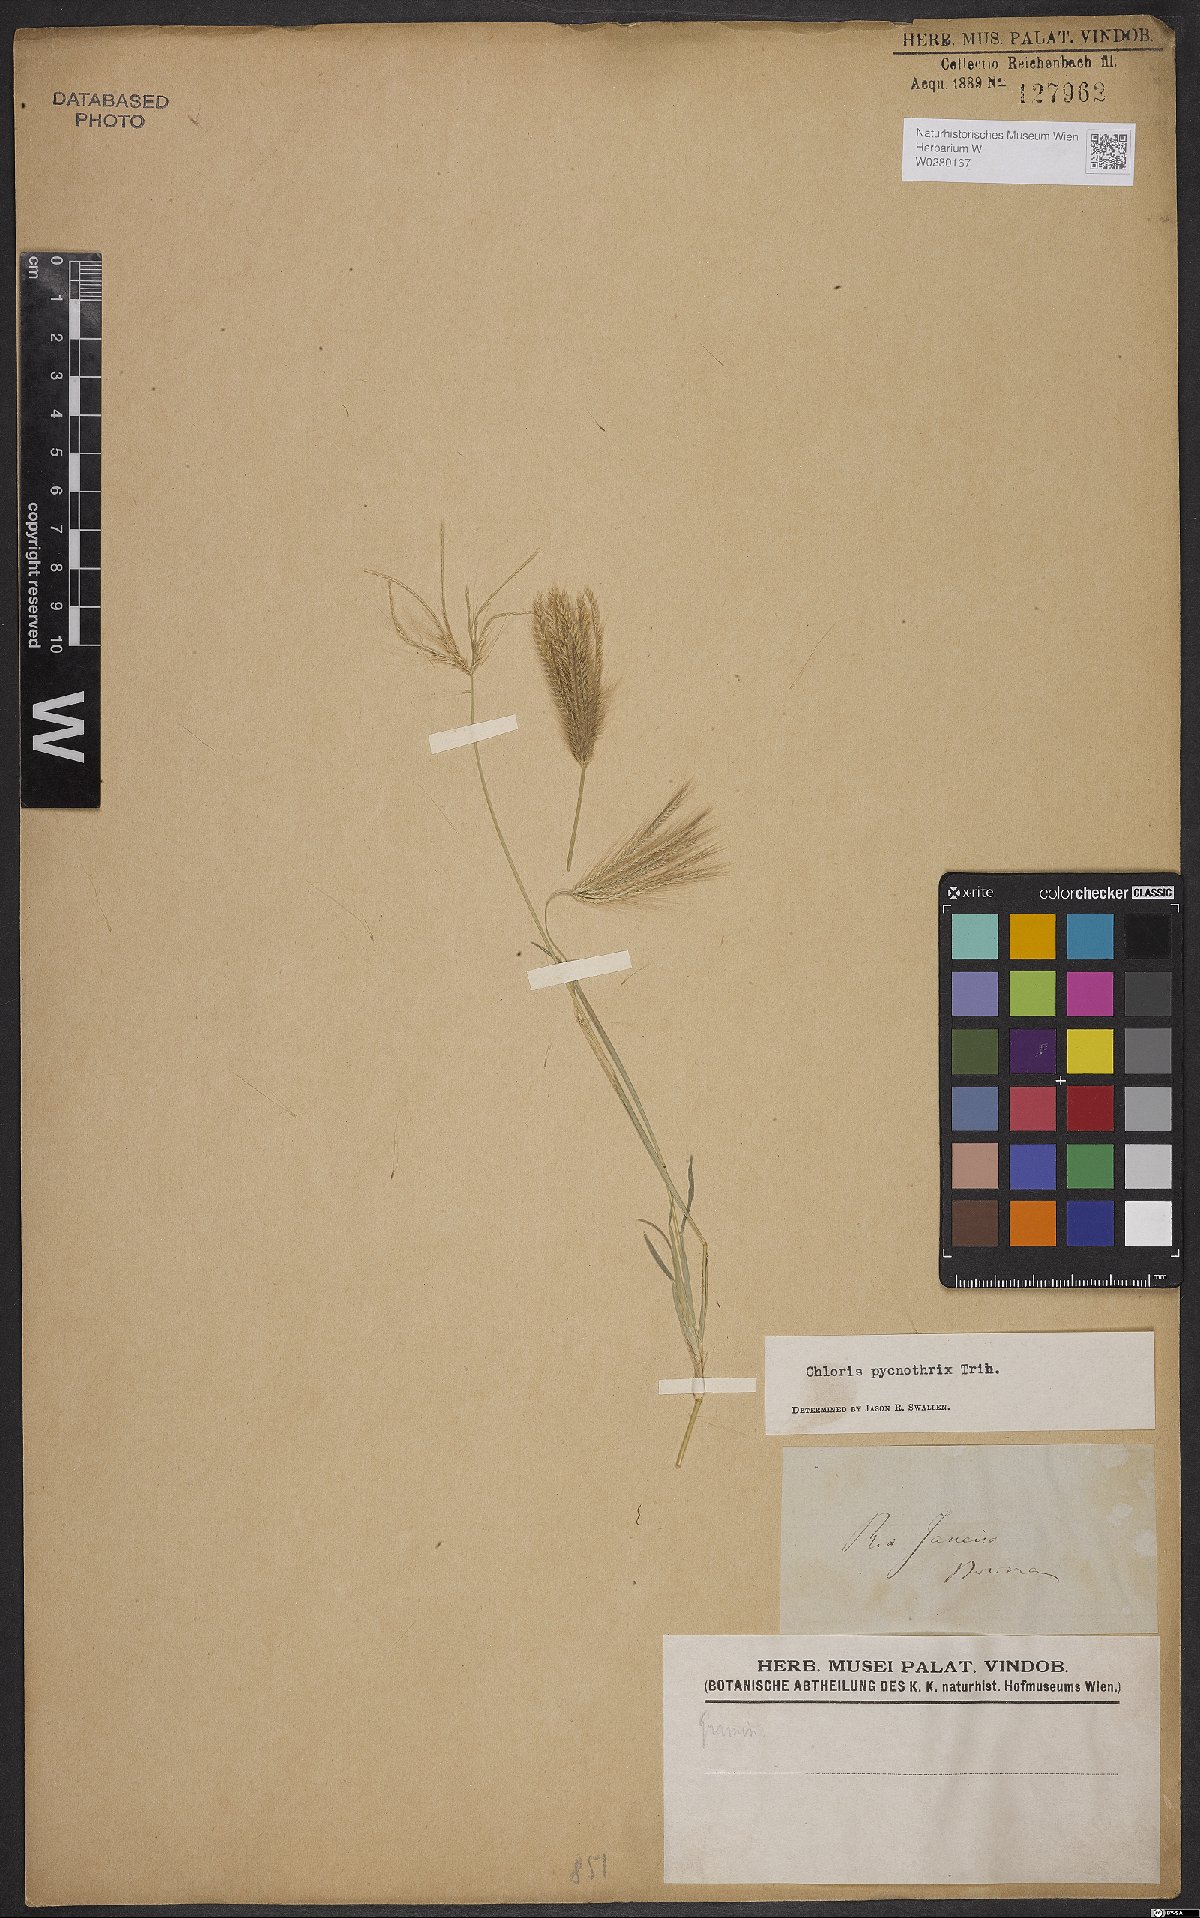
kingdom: Plantae
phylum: Tracheophyta
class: Liliopsida
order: Poales
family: Poaceae
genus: Chloris
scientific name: Chloris pycnothrix
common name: Spiderweb chloris
